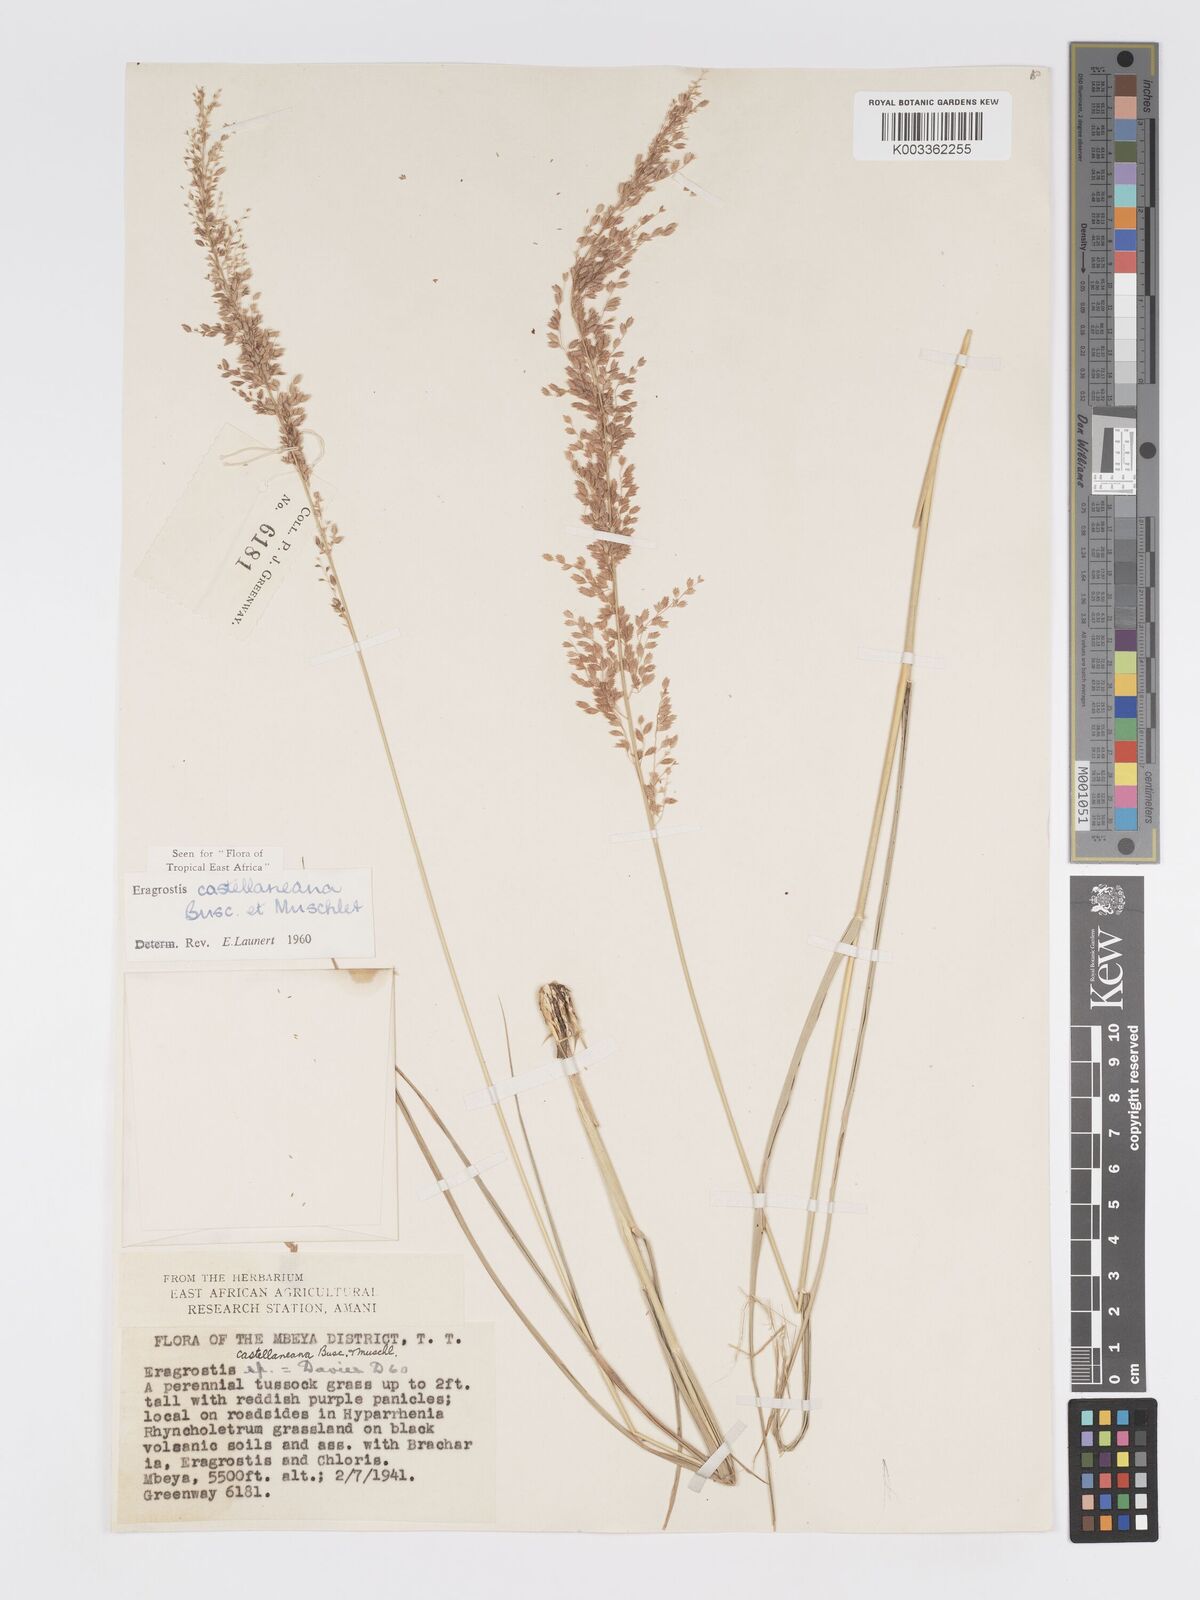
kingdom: Plantae
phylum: Tracheophyta
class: Liliopsida
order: Poales
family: Poaceae
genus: Eragrostis
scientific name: Eragrostis castellaneana
